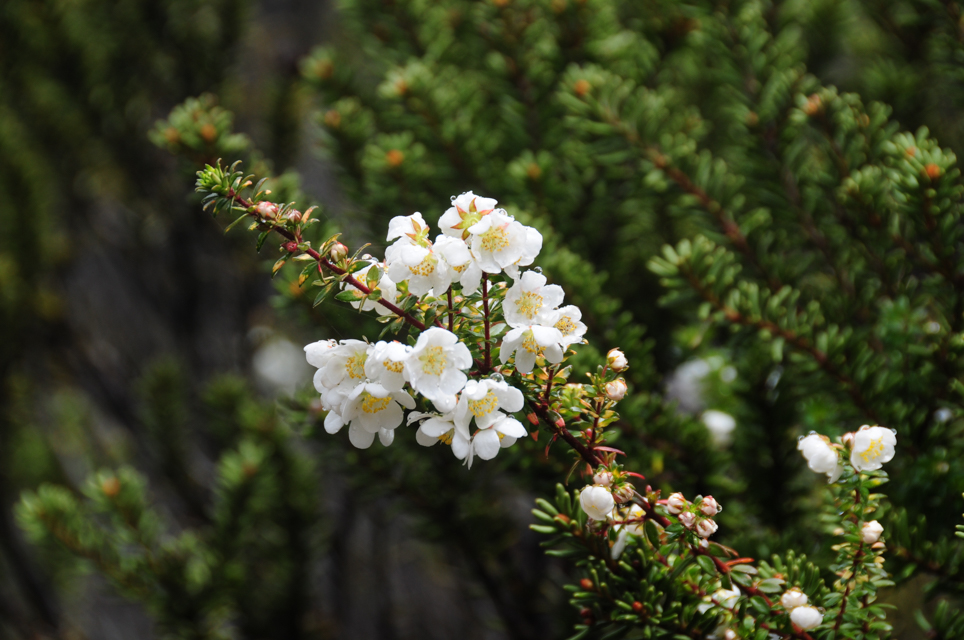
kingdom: Plantae
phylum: Tracheophyta
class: Magnoliopsida
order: Oxalidales
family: Cunoniaceae
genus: Bauera
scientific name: Bauera rubioides
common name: River-rose
